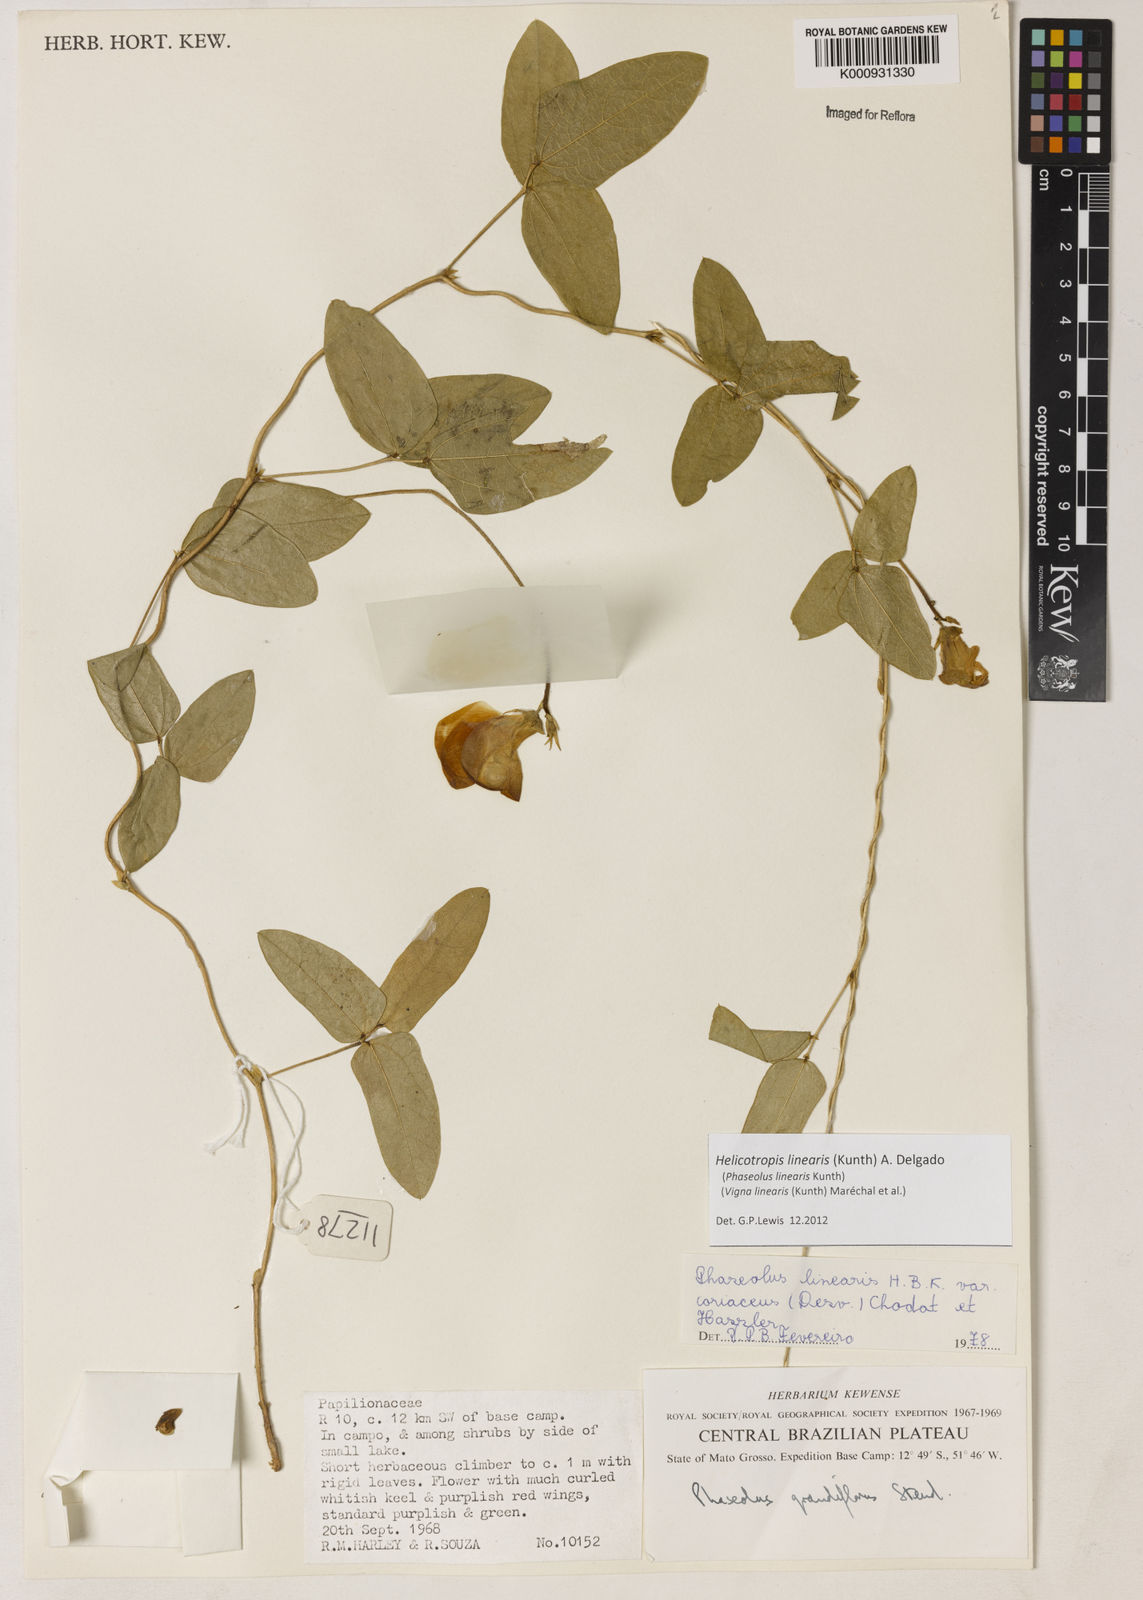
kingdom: Plantae
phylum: Tracheophyta
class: Magnoliopsida
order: Fabales
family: Fabaceae
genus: Helicotropis
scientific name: Helicotropis linearis
